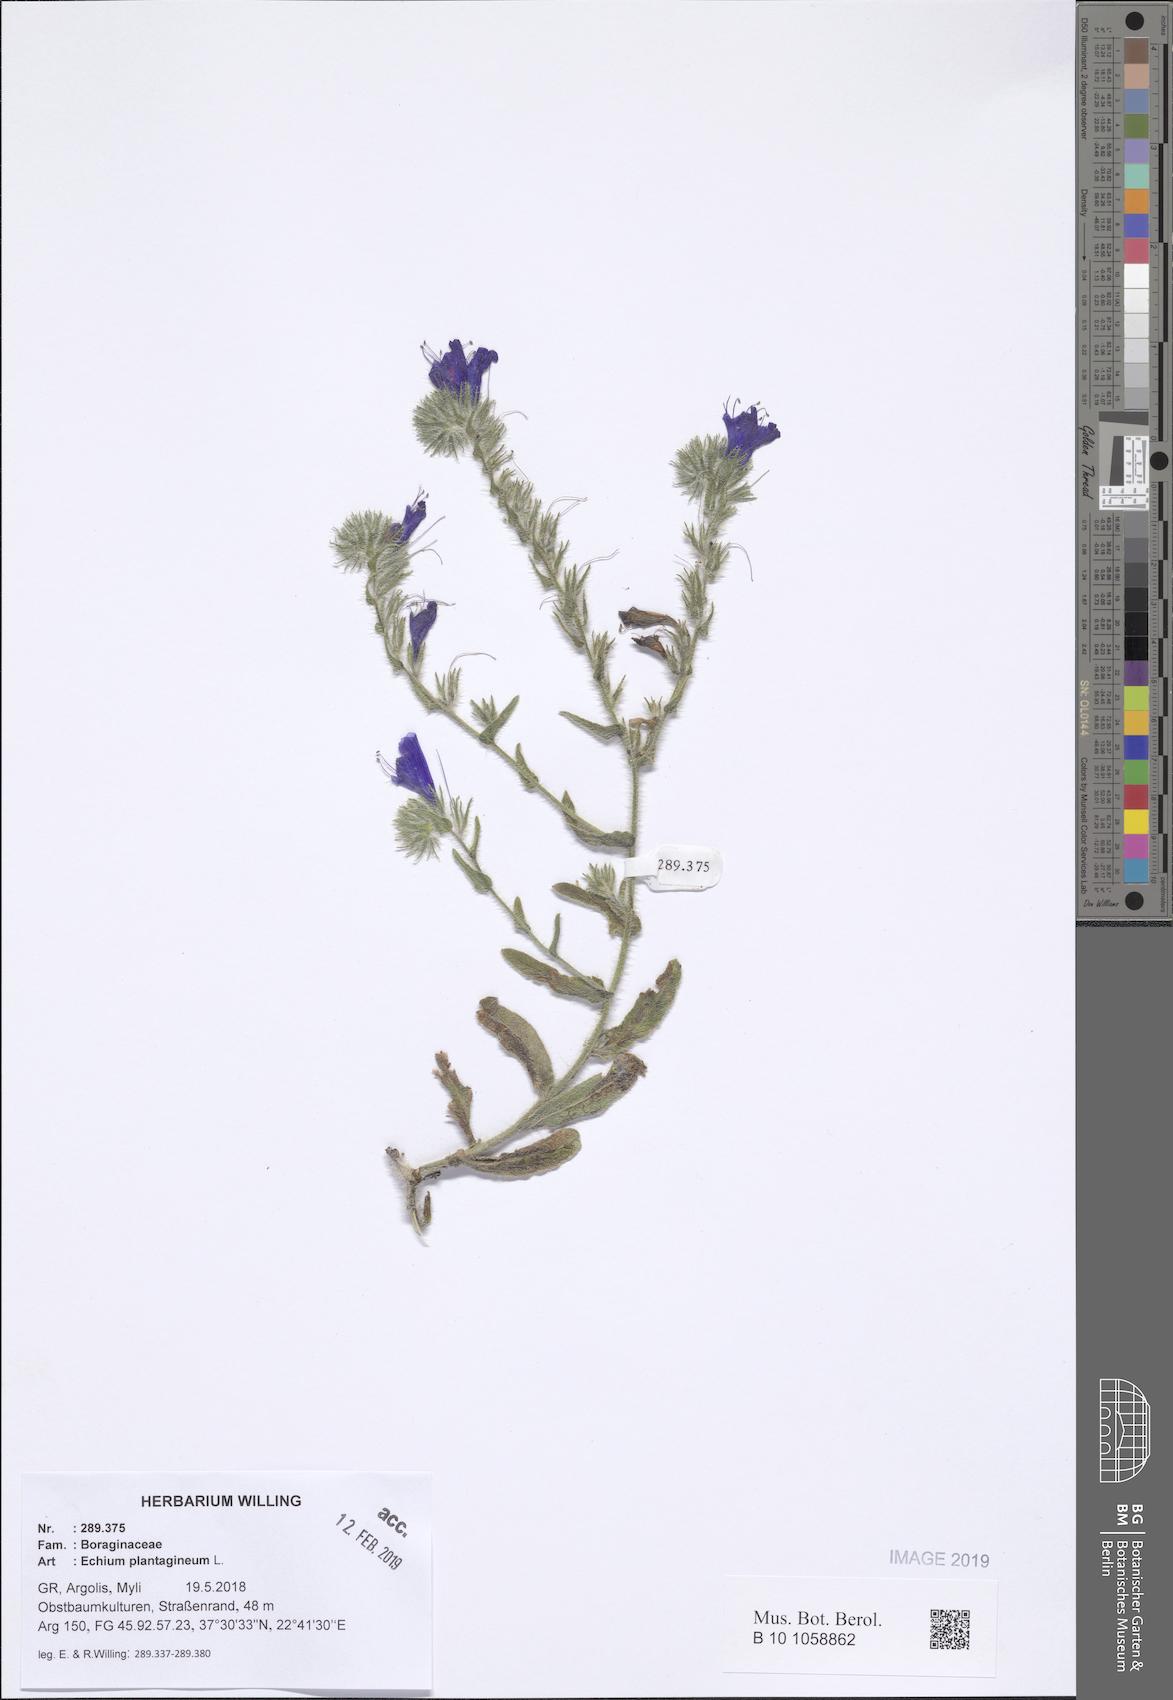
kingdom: Plantae
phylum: Tracheophyta
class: Magnoliopsida
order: Boraginales
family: Boraginaceae
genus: Echium
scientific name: Echium plantagineum
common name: Purple viper's-bugloss
